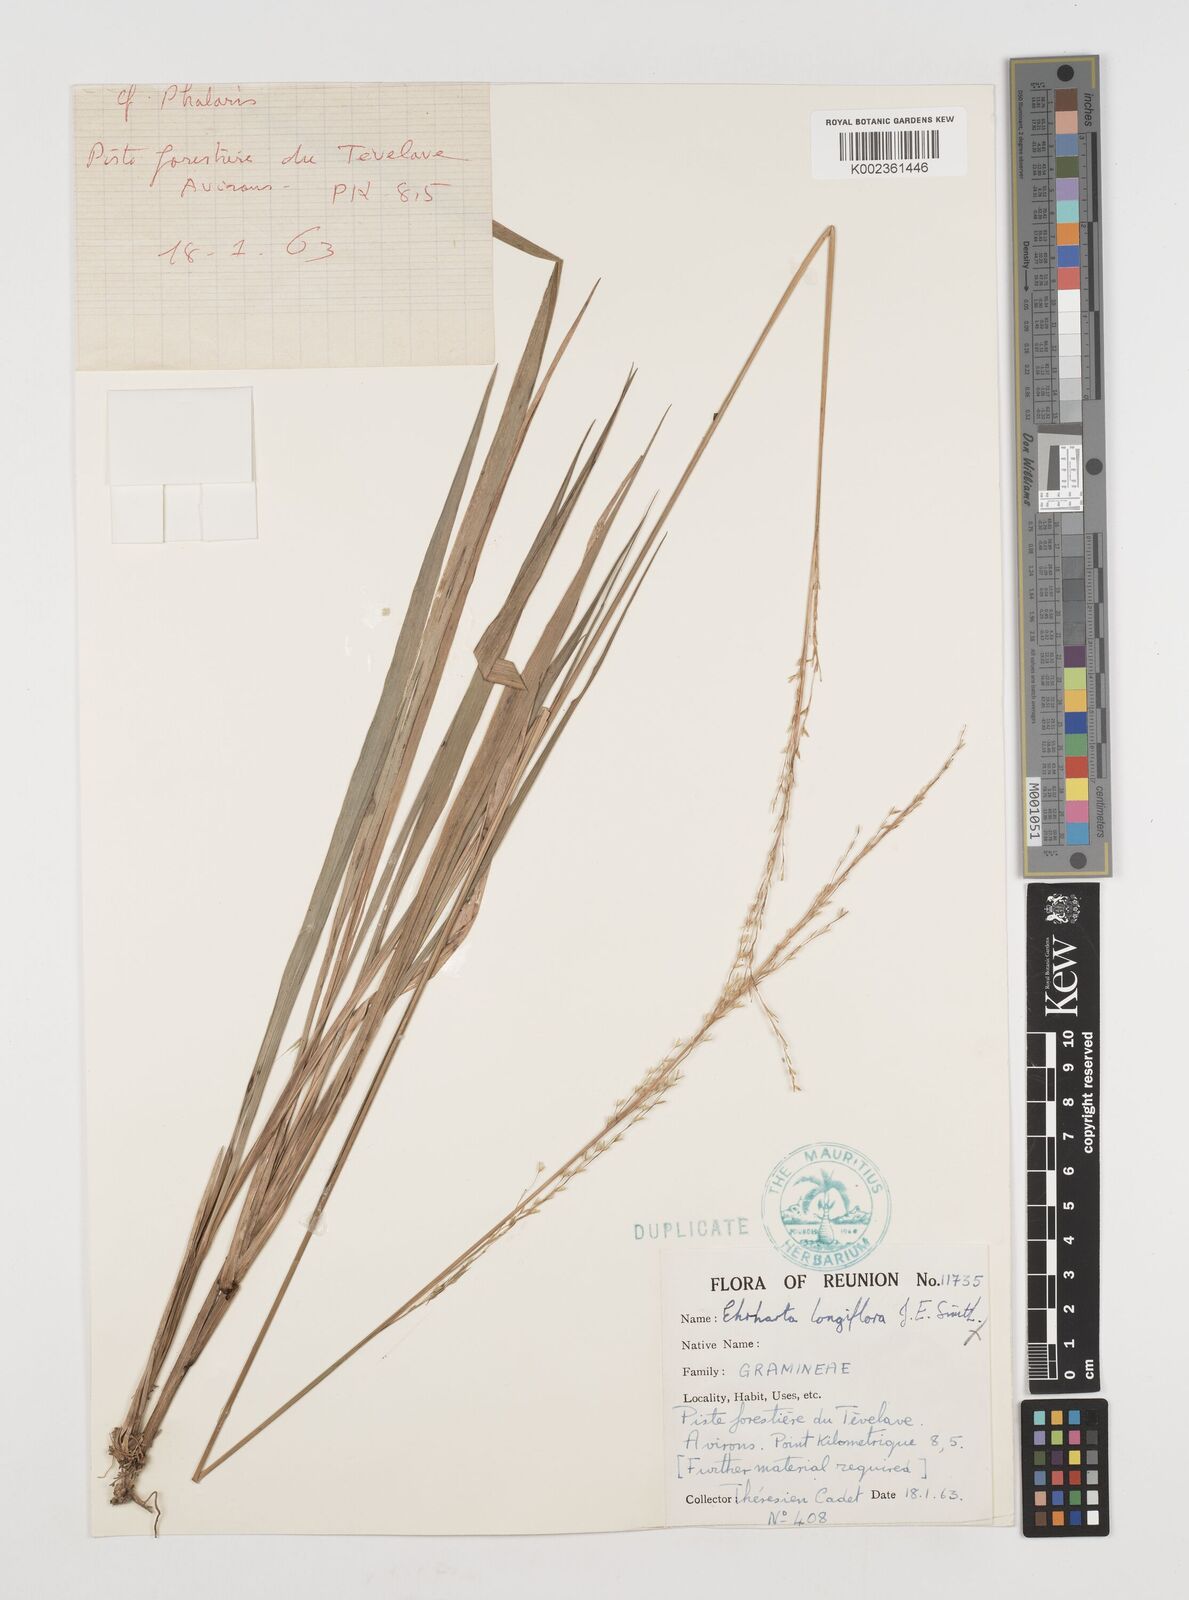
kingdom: Plantae
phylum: Tracheophyta
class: Liliopsida
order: Poales
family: Poaceae
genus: Ehrharta
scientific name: Ehrharta
